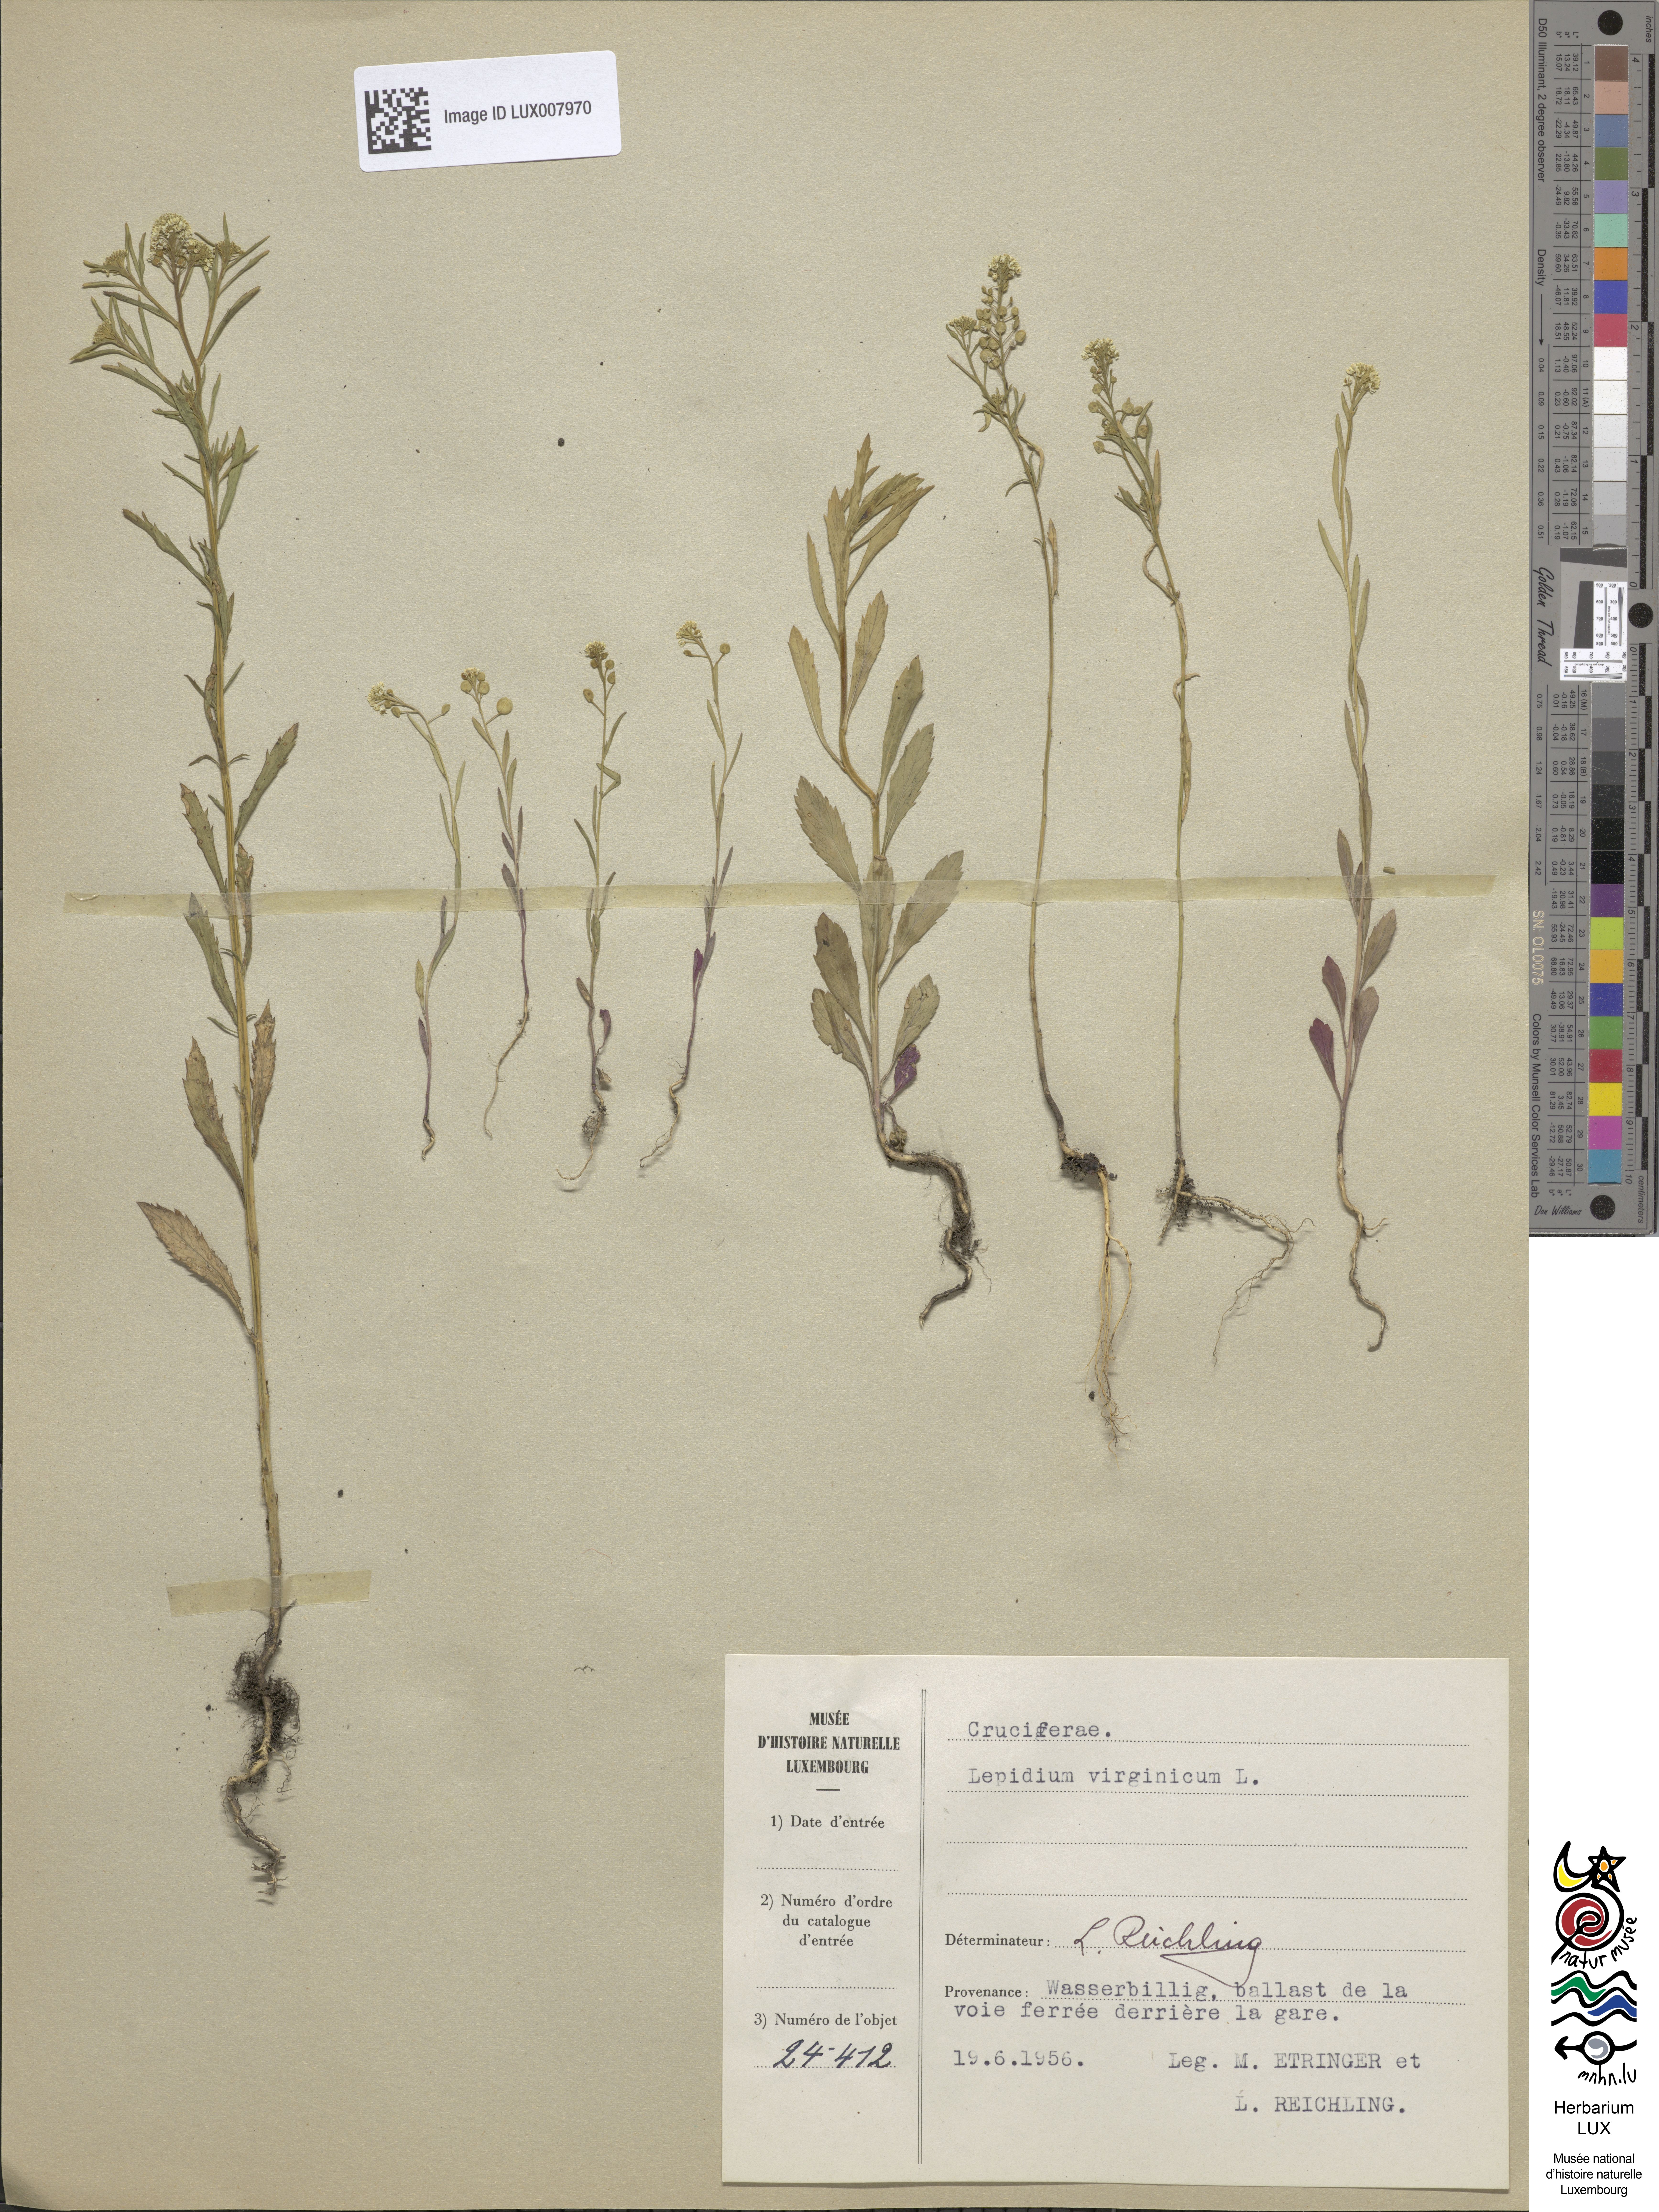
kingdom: Plantae
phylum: Tracheophyta
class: Magnoliopsida
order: Brassicales
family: Brassicaceae
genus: Lepidium
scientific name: Lepidium virginicum
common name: Least pepperwort
